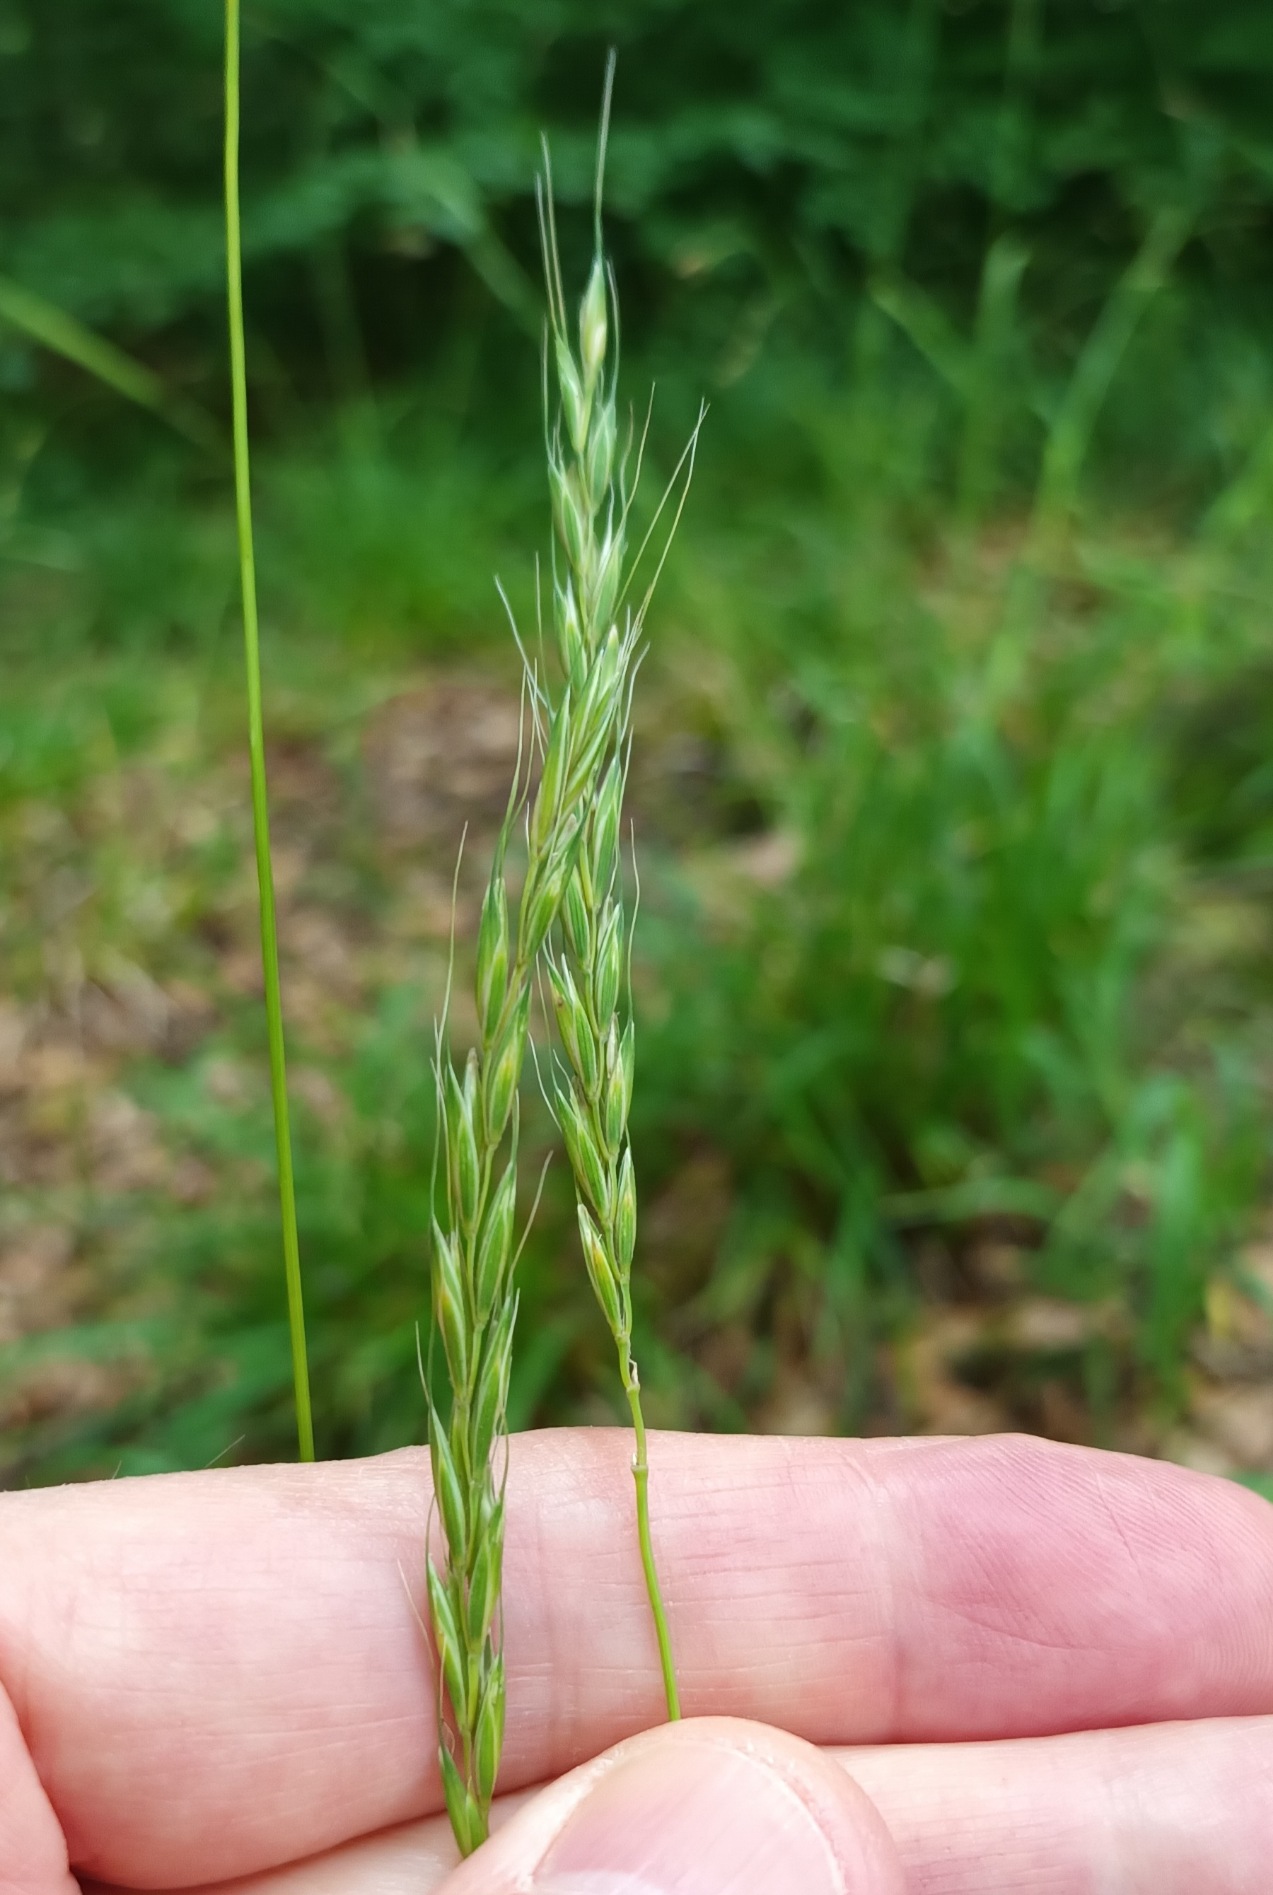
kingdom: Plantae
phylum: Tracheophyta
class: Liliopsida
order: Poales
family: Poaceae
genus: Elymus
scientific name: Elymus caninus
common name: Hundekvik
